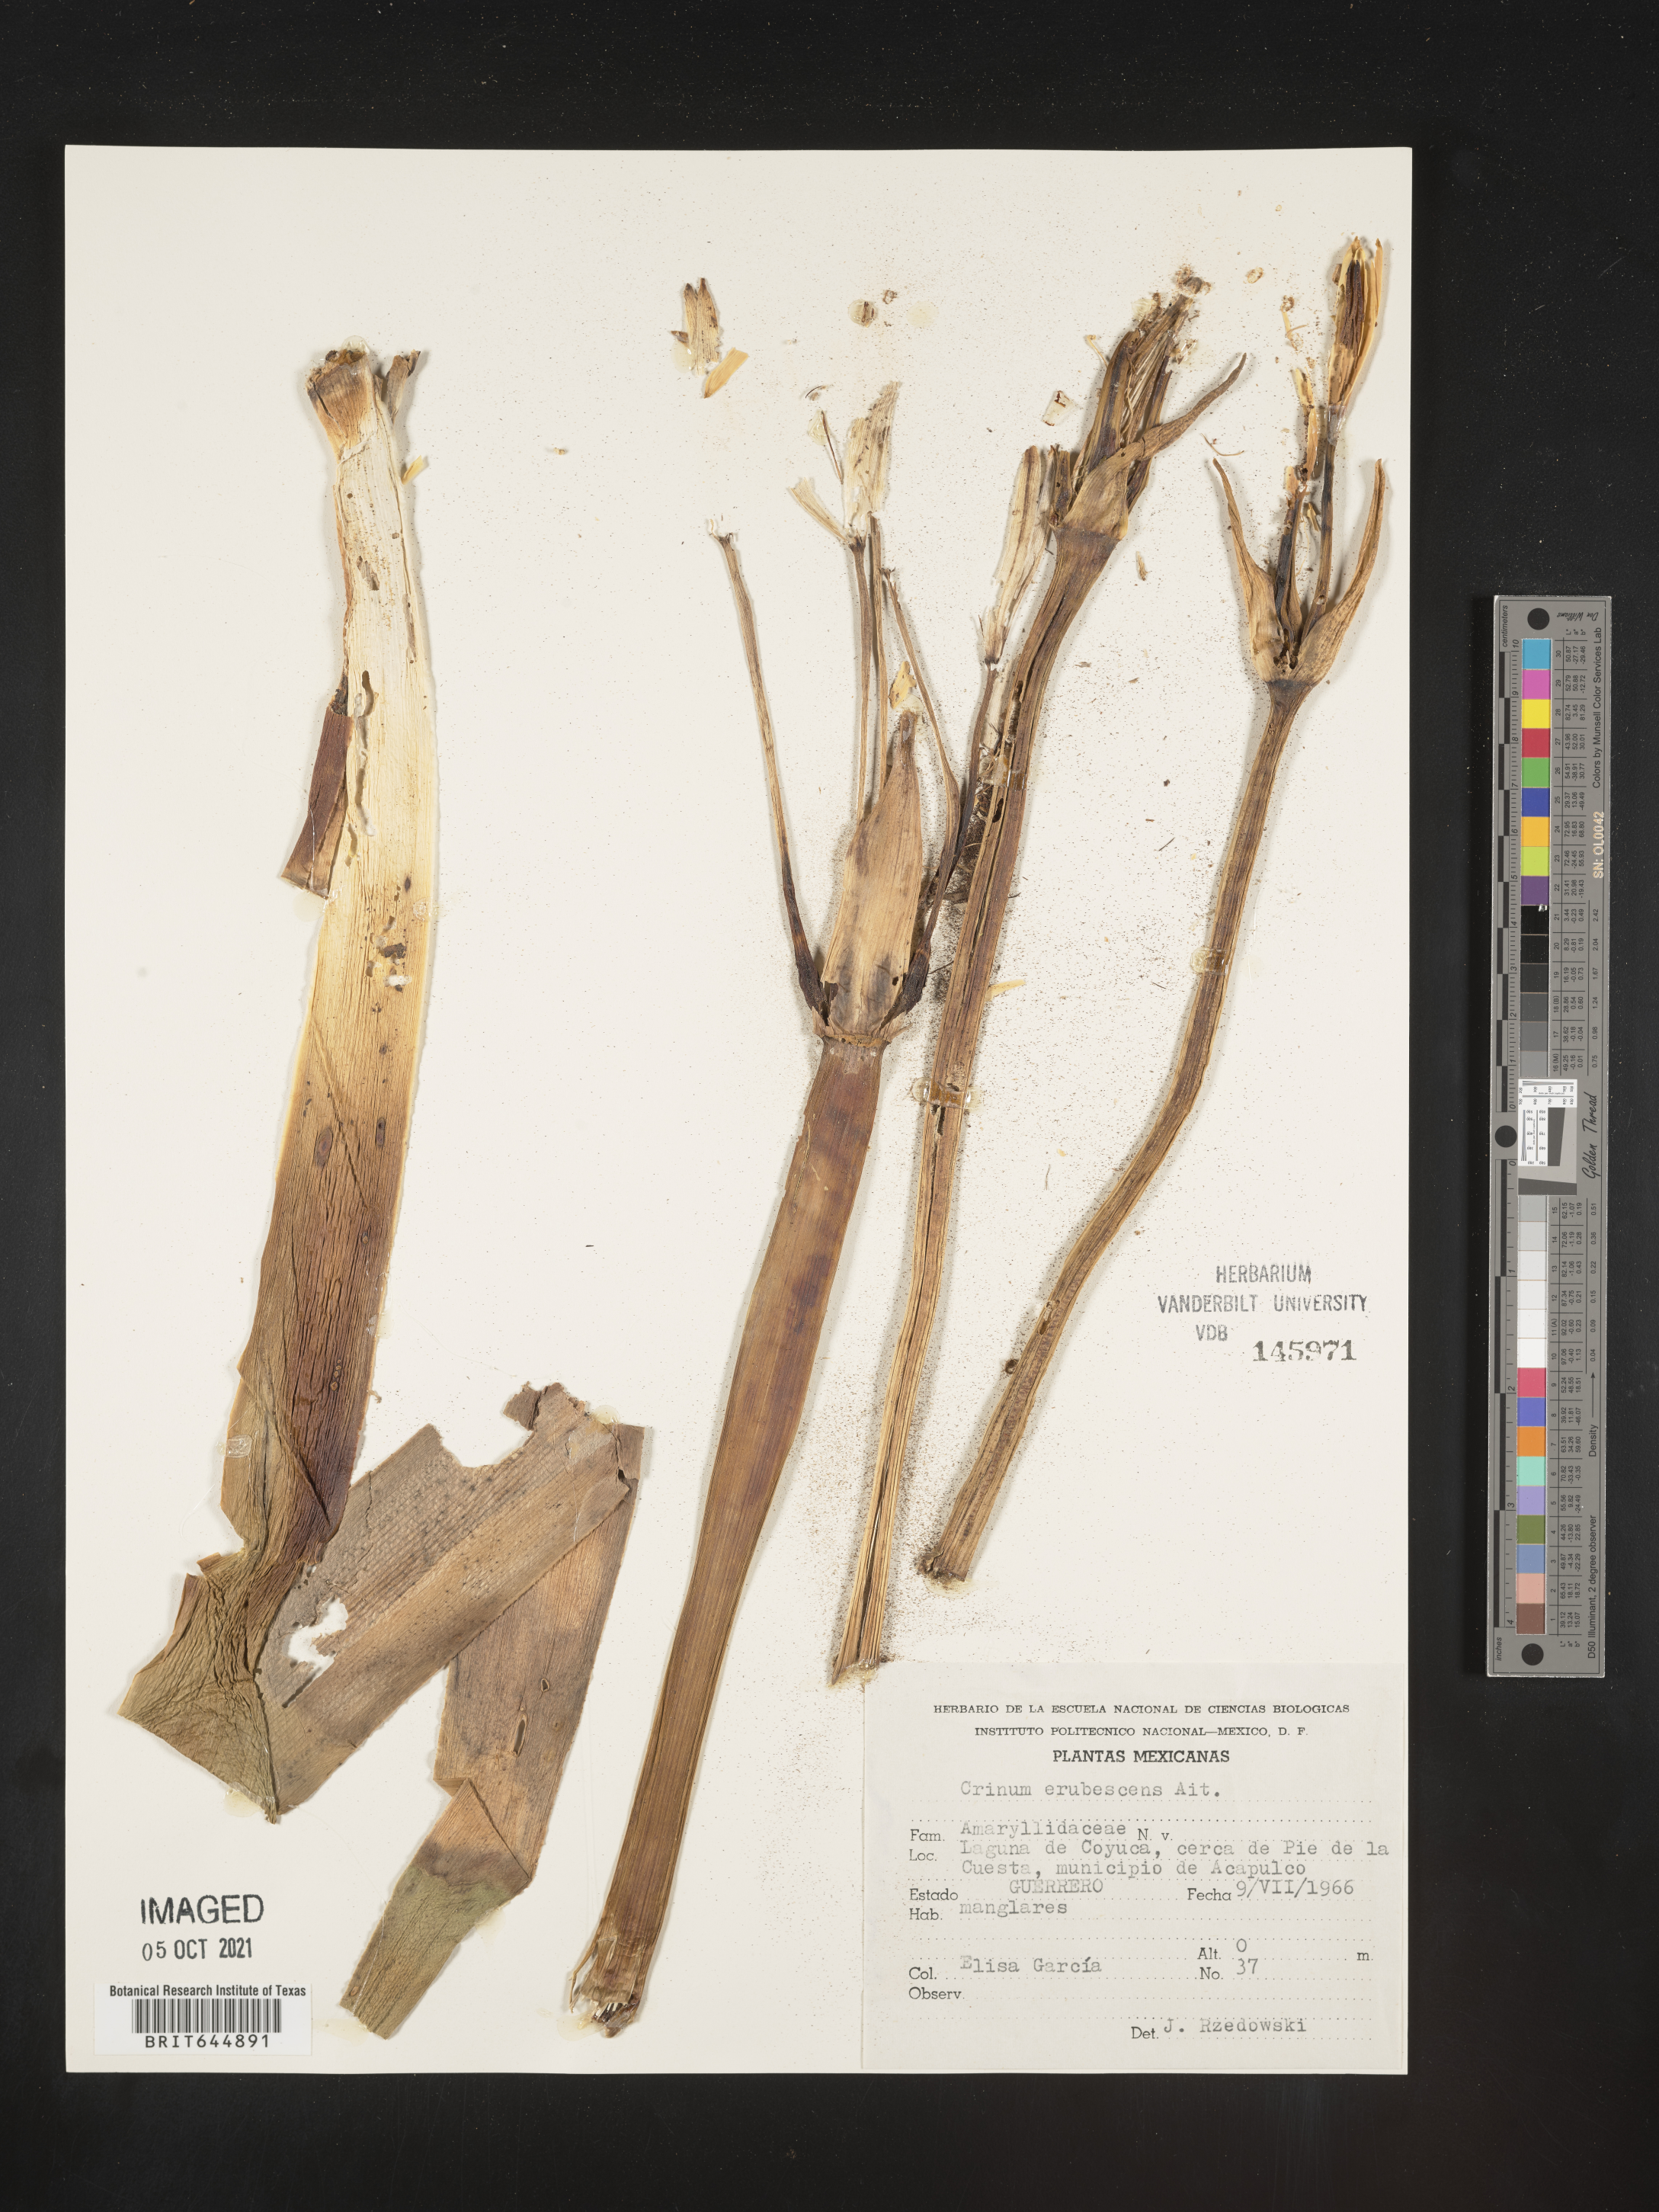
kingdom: Plantae
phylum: Tracheophyta
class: Liliopsida
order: Asparagales
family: Amaryllidaceae
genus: Crinum
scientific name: Crinum
